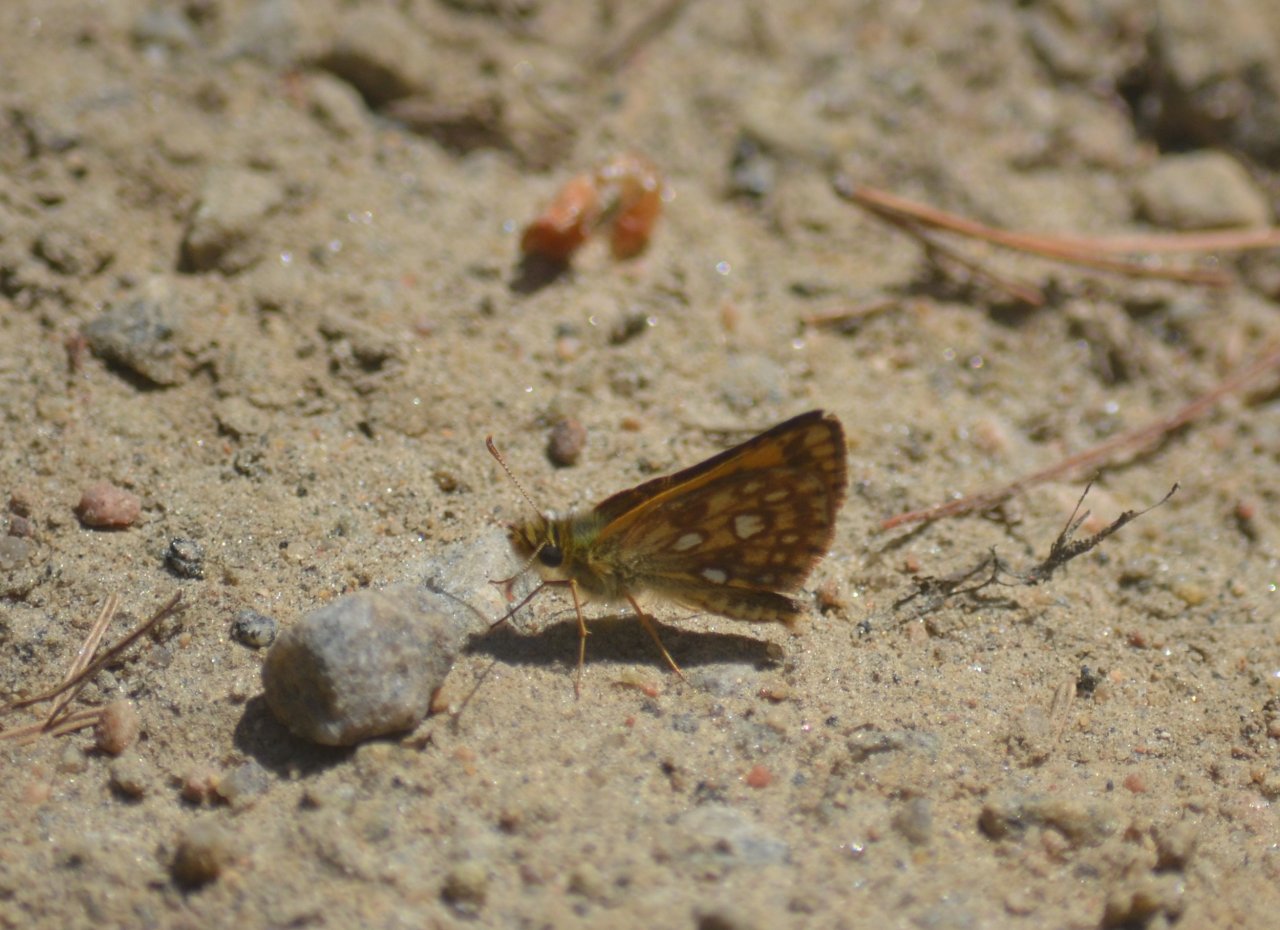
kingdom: Animalia
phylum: Arthropoda
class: Insecta
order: Lepidoptera
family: Hesperiidae
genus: Carterocephalus
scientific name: Carterocephalus palaemon
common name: Chequered Skipper
